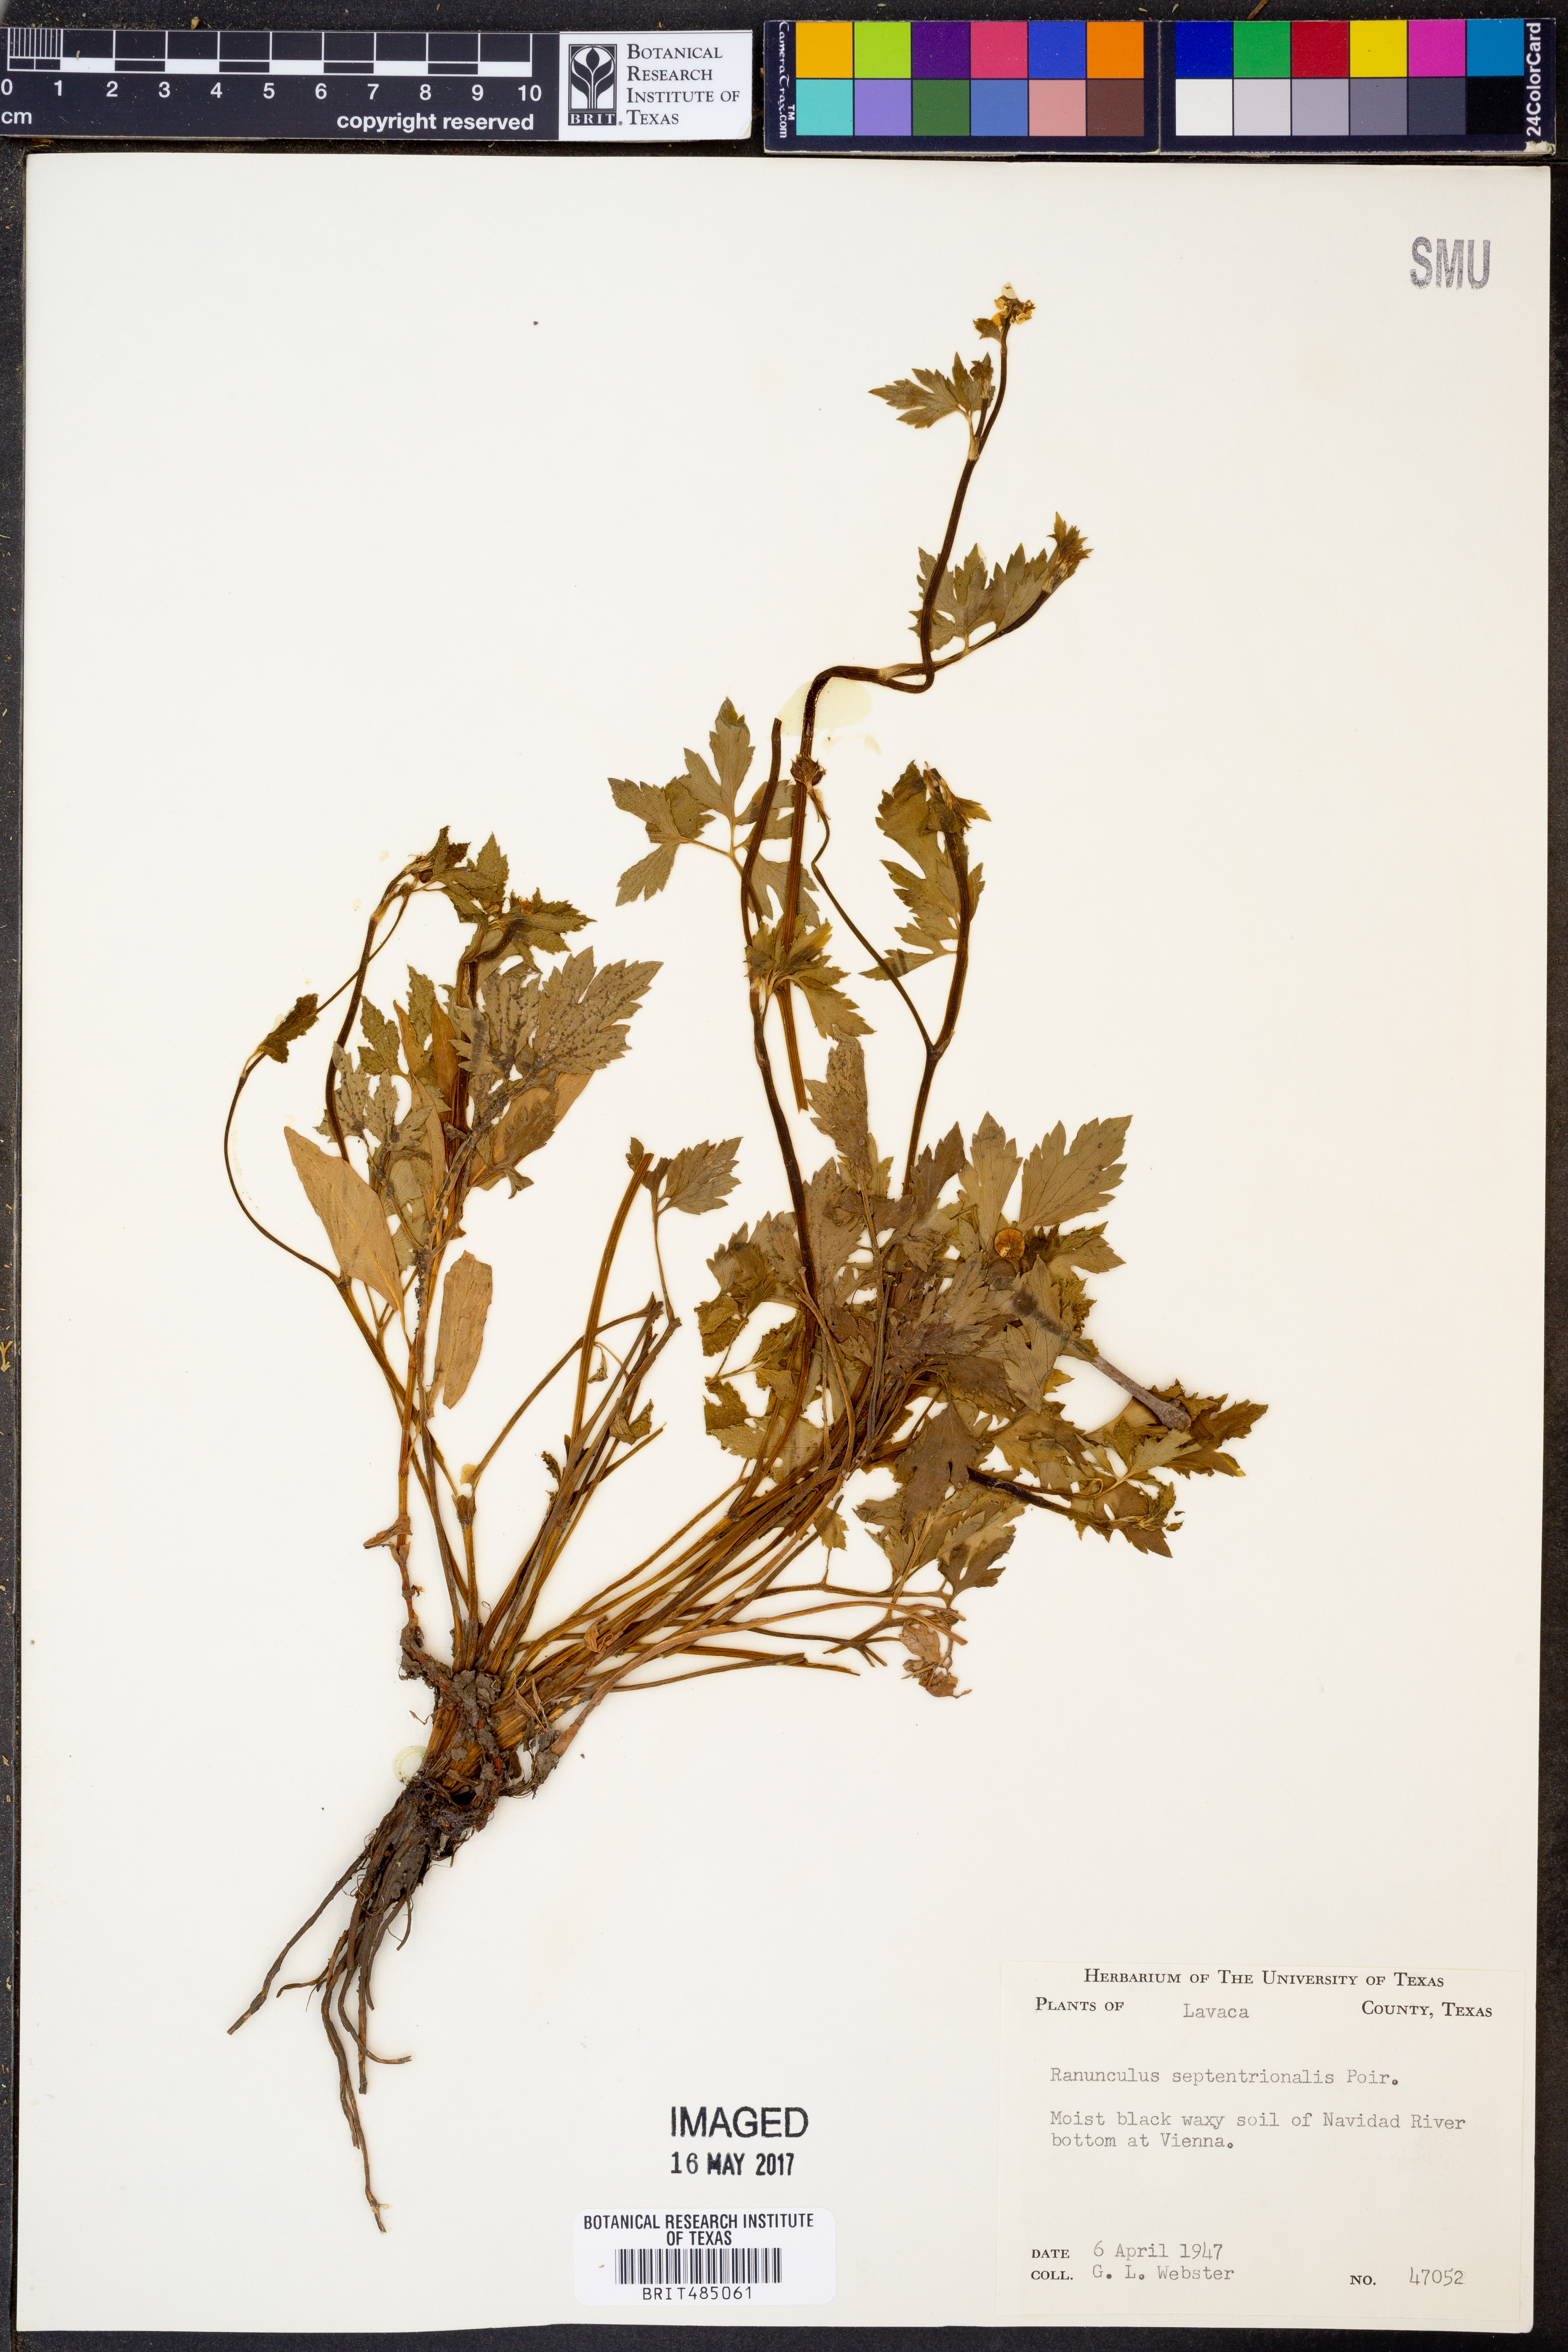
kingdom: Plantae
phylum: Tracheophyta
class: Magnoliopsida
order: Ranunculales
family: Ranunculaceae
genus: Ranunculus
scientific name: Ranunculus hispidus
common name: Bristly buttercup
